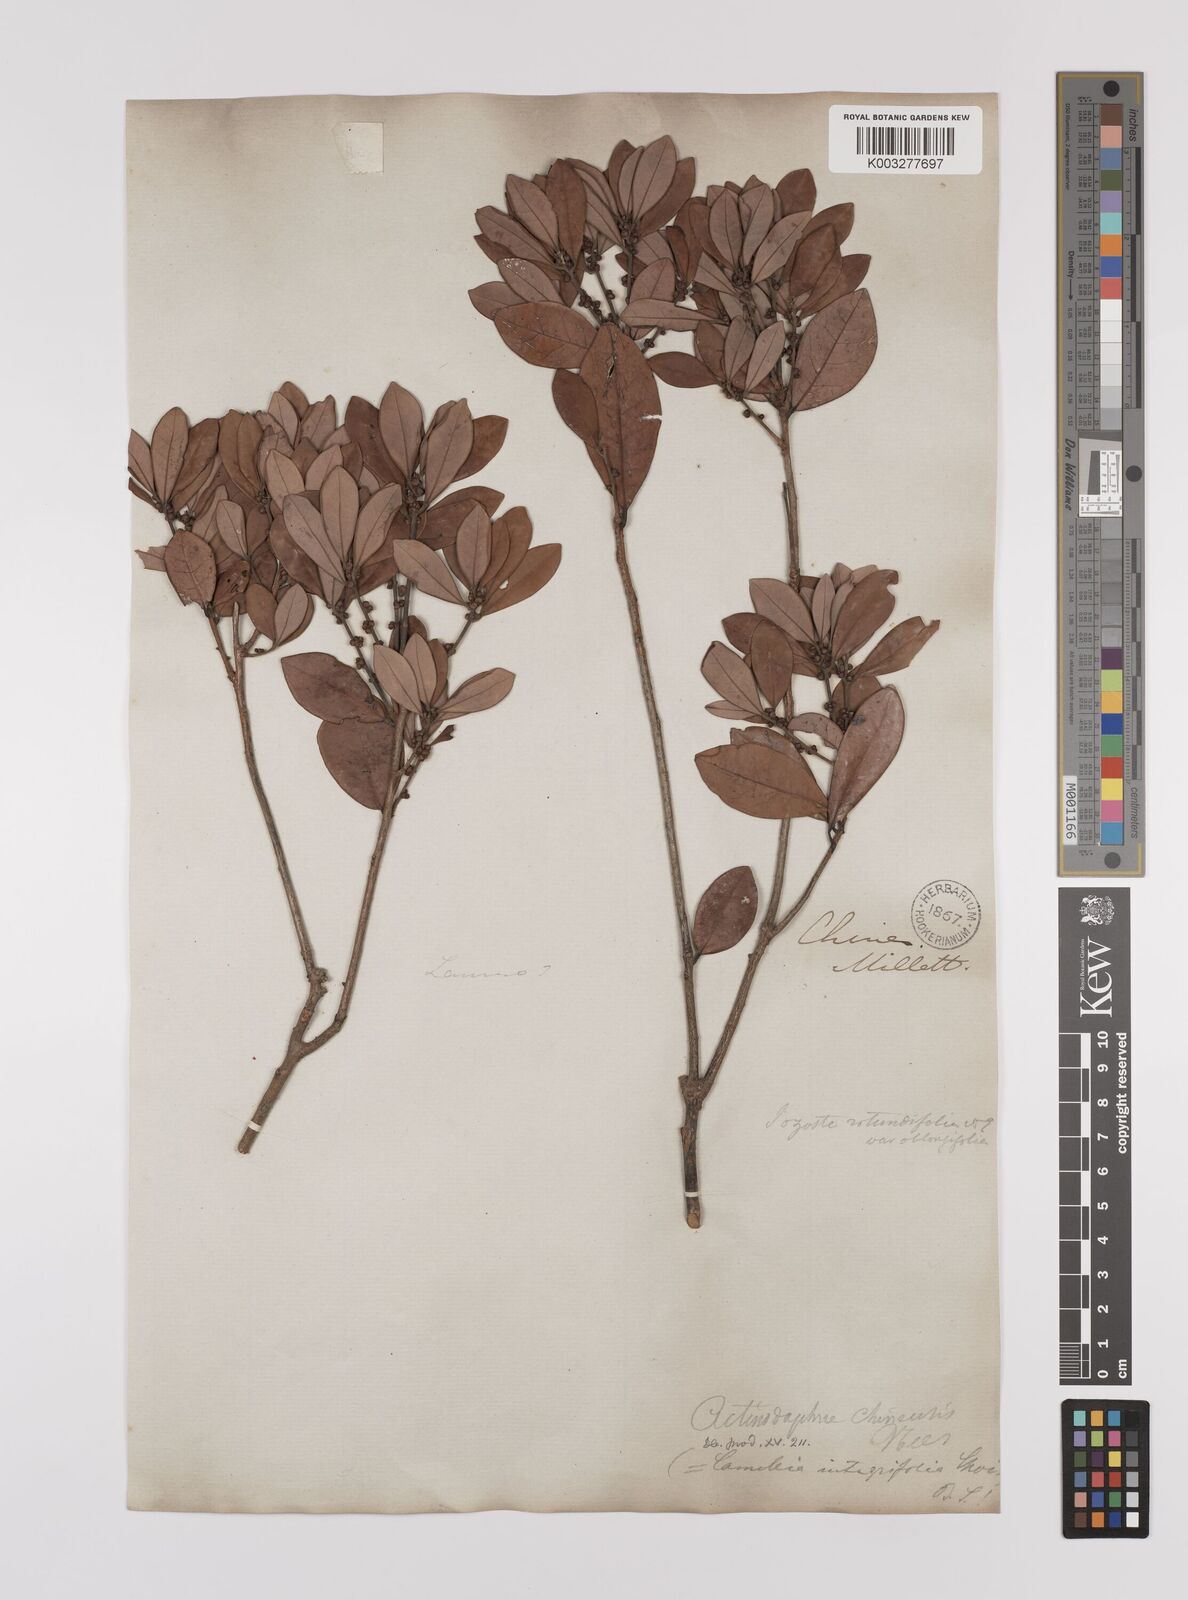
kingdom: Plantae
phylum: Tracheophyta
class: Magnoliopsida
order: Laurales
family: Lauraceae
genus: Litsea
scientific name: Litsea rotundifolia
